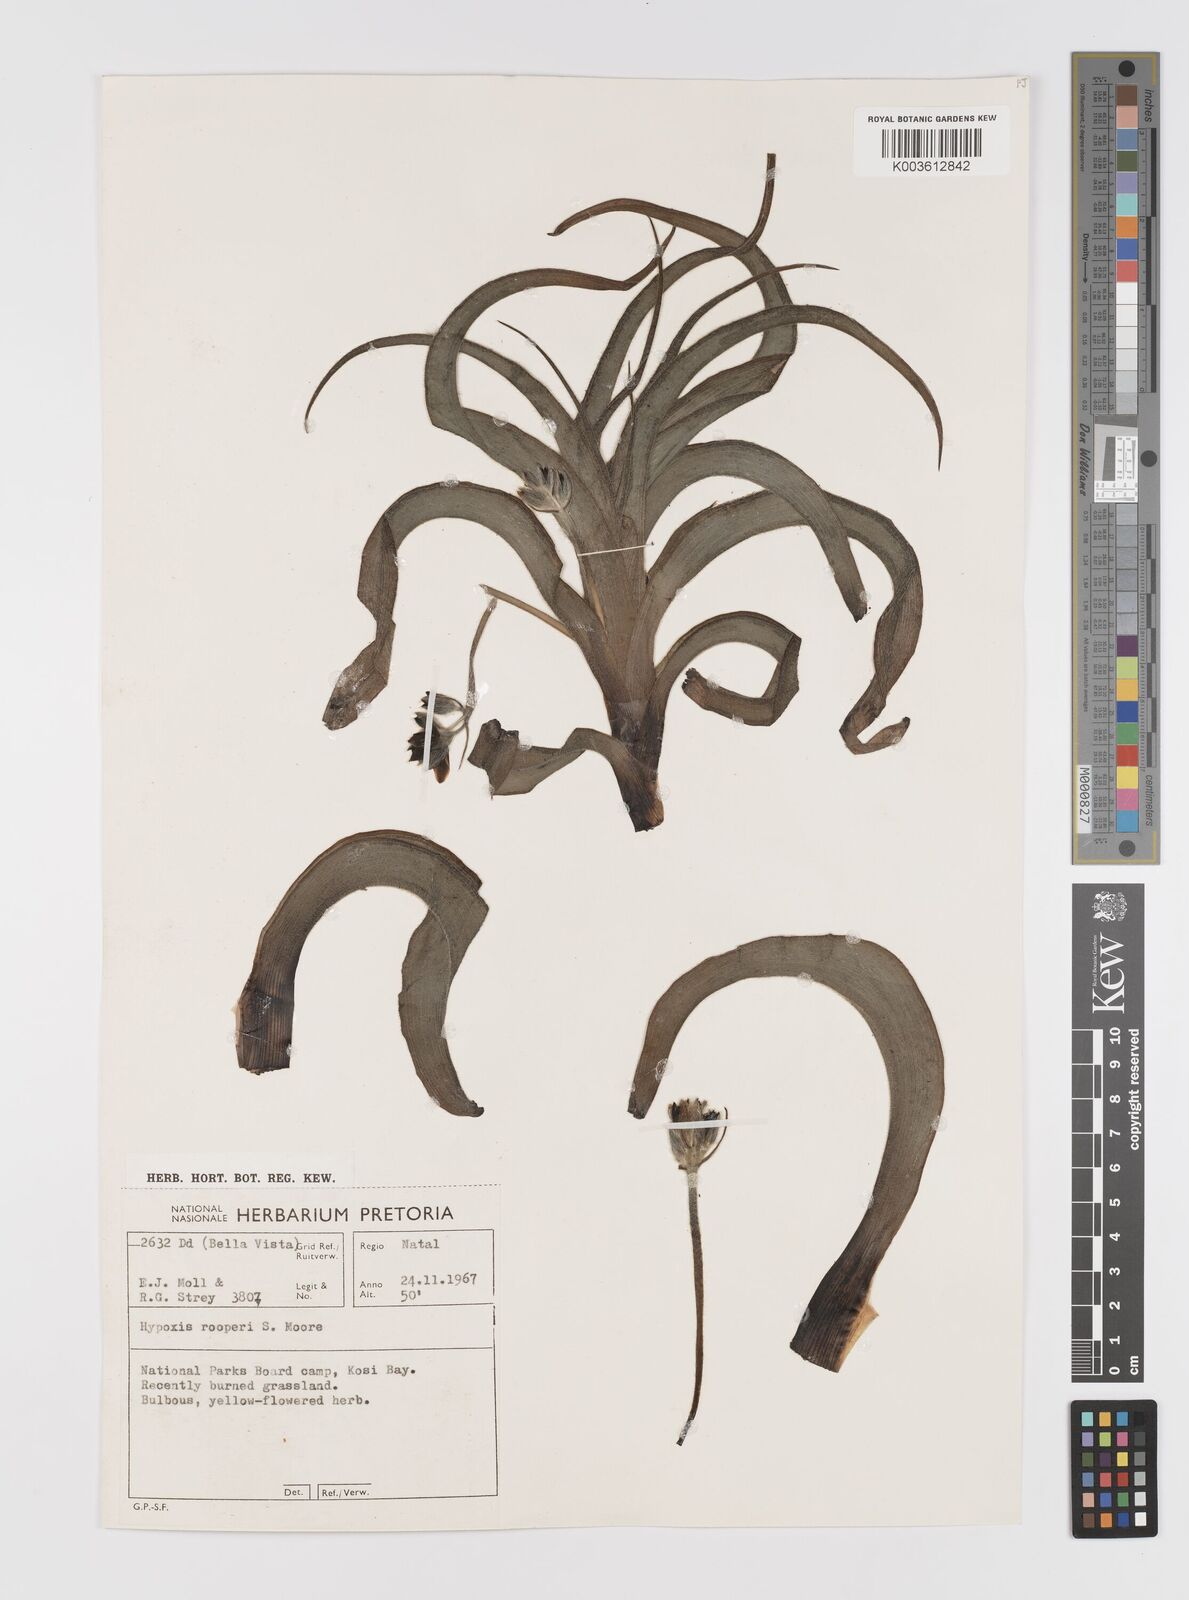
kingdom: Plantae
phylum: Tracheophyta
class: Liliopsida
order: Asparagales
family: Hypoxidaceae
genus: Hypoxis
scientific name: Hypoxis hemerocallidea
